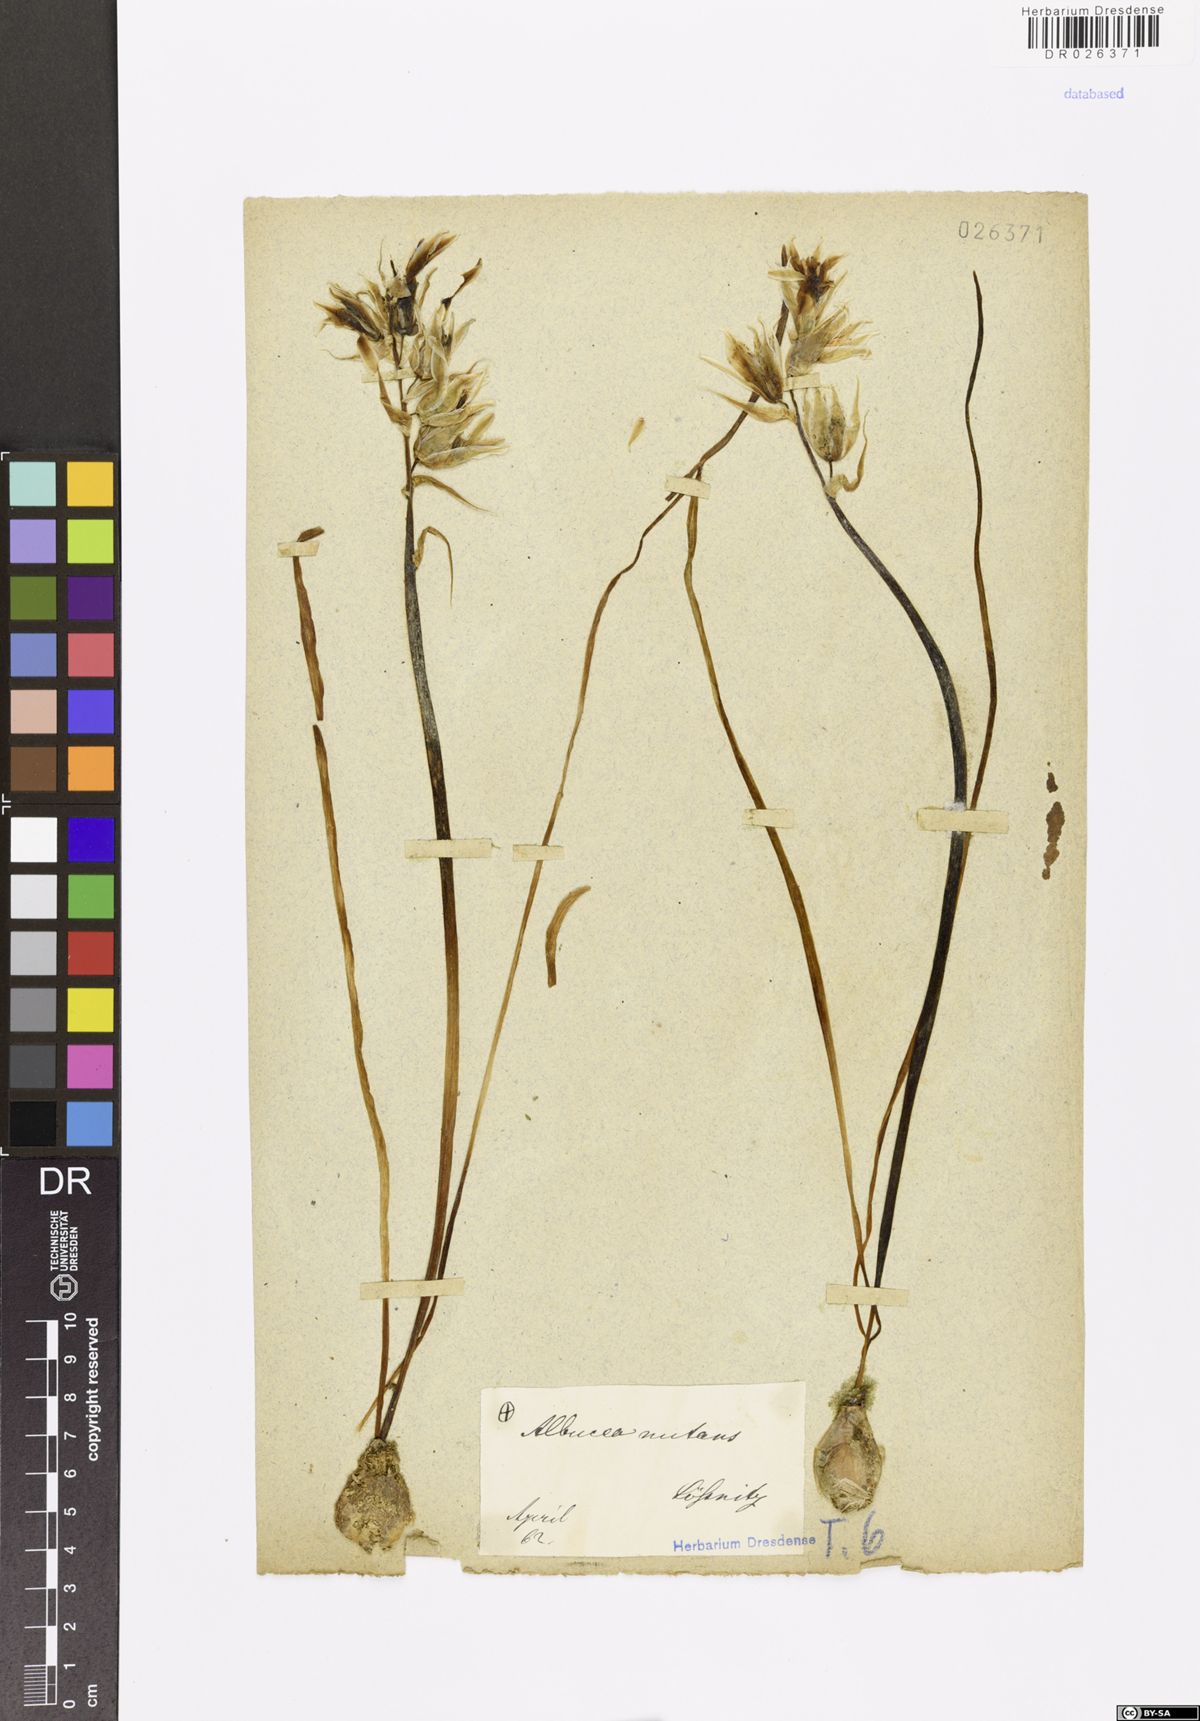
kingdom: Plantae
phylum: Tracheophyta
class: Liliopsida
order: Asparagales
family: Asparagaceae
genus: Ornithogalum
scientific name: Ornithogalum nutans
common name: Drooping star-of-bethlehem
